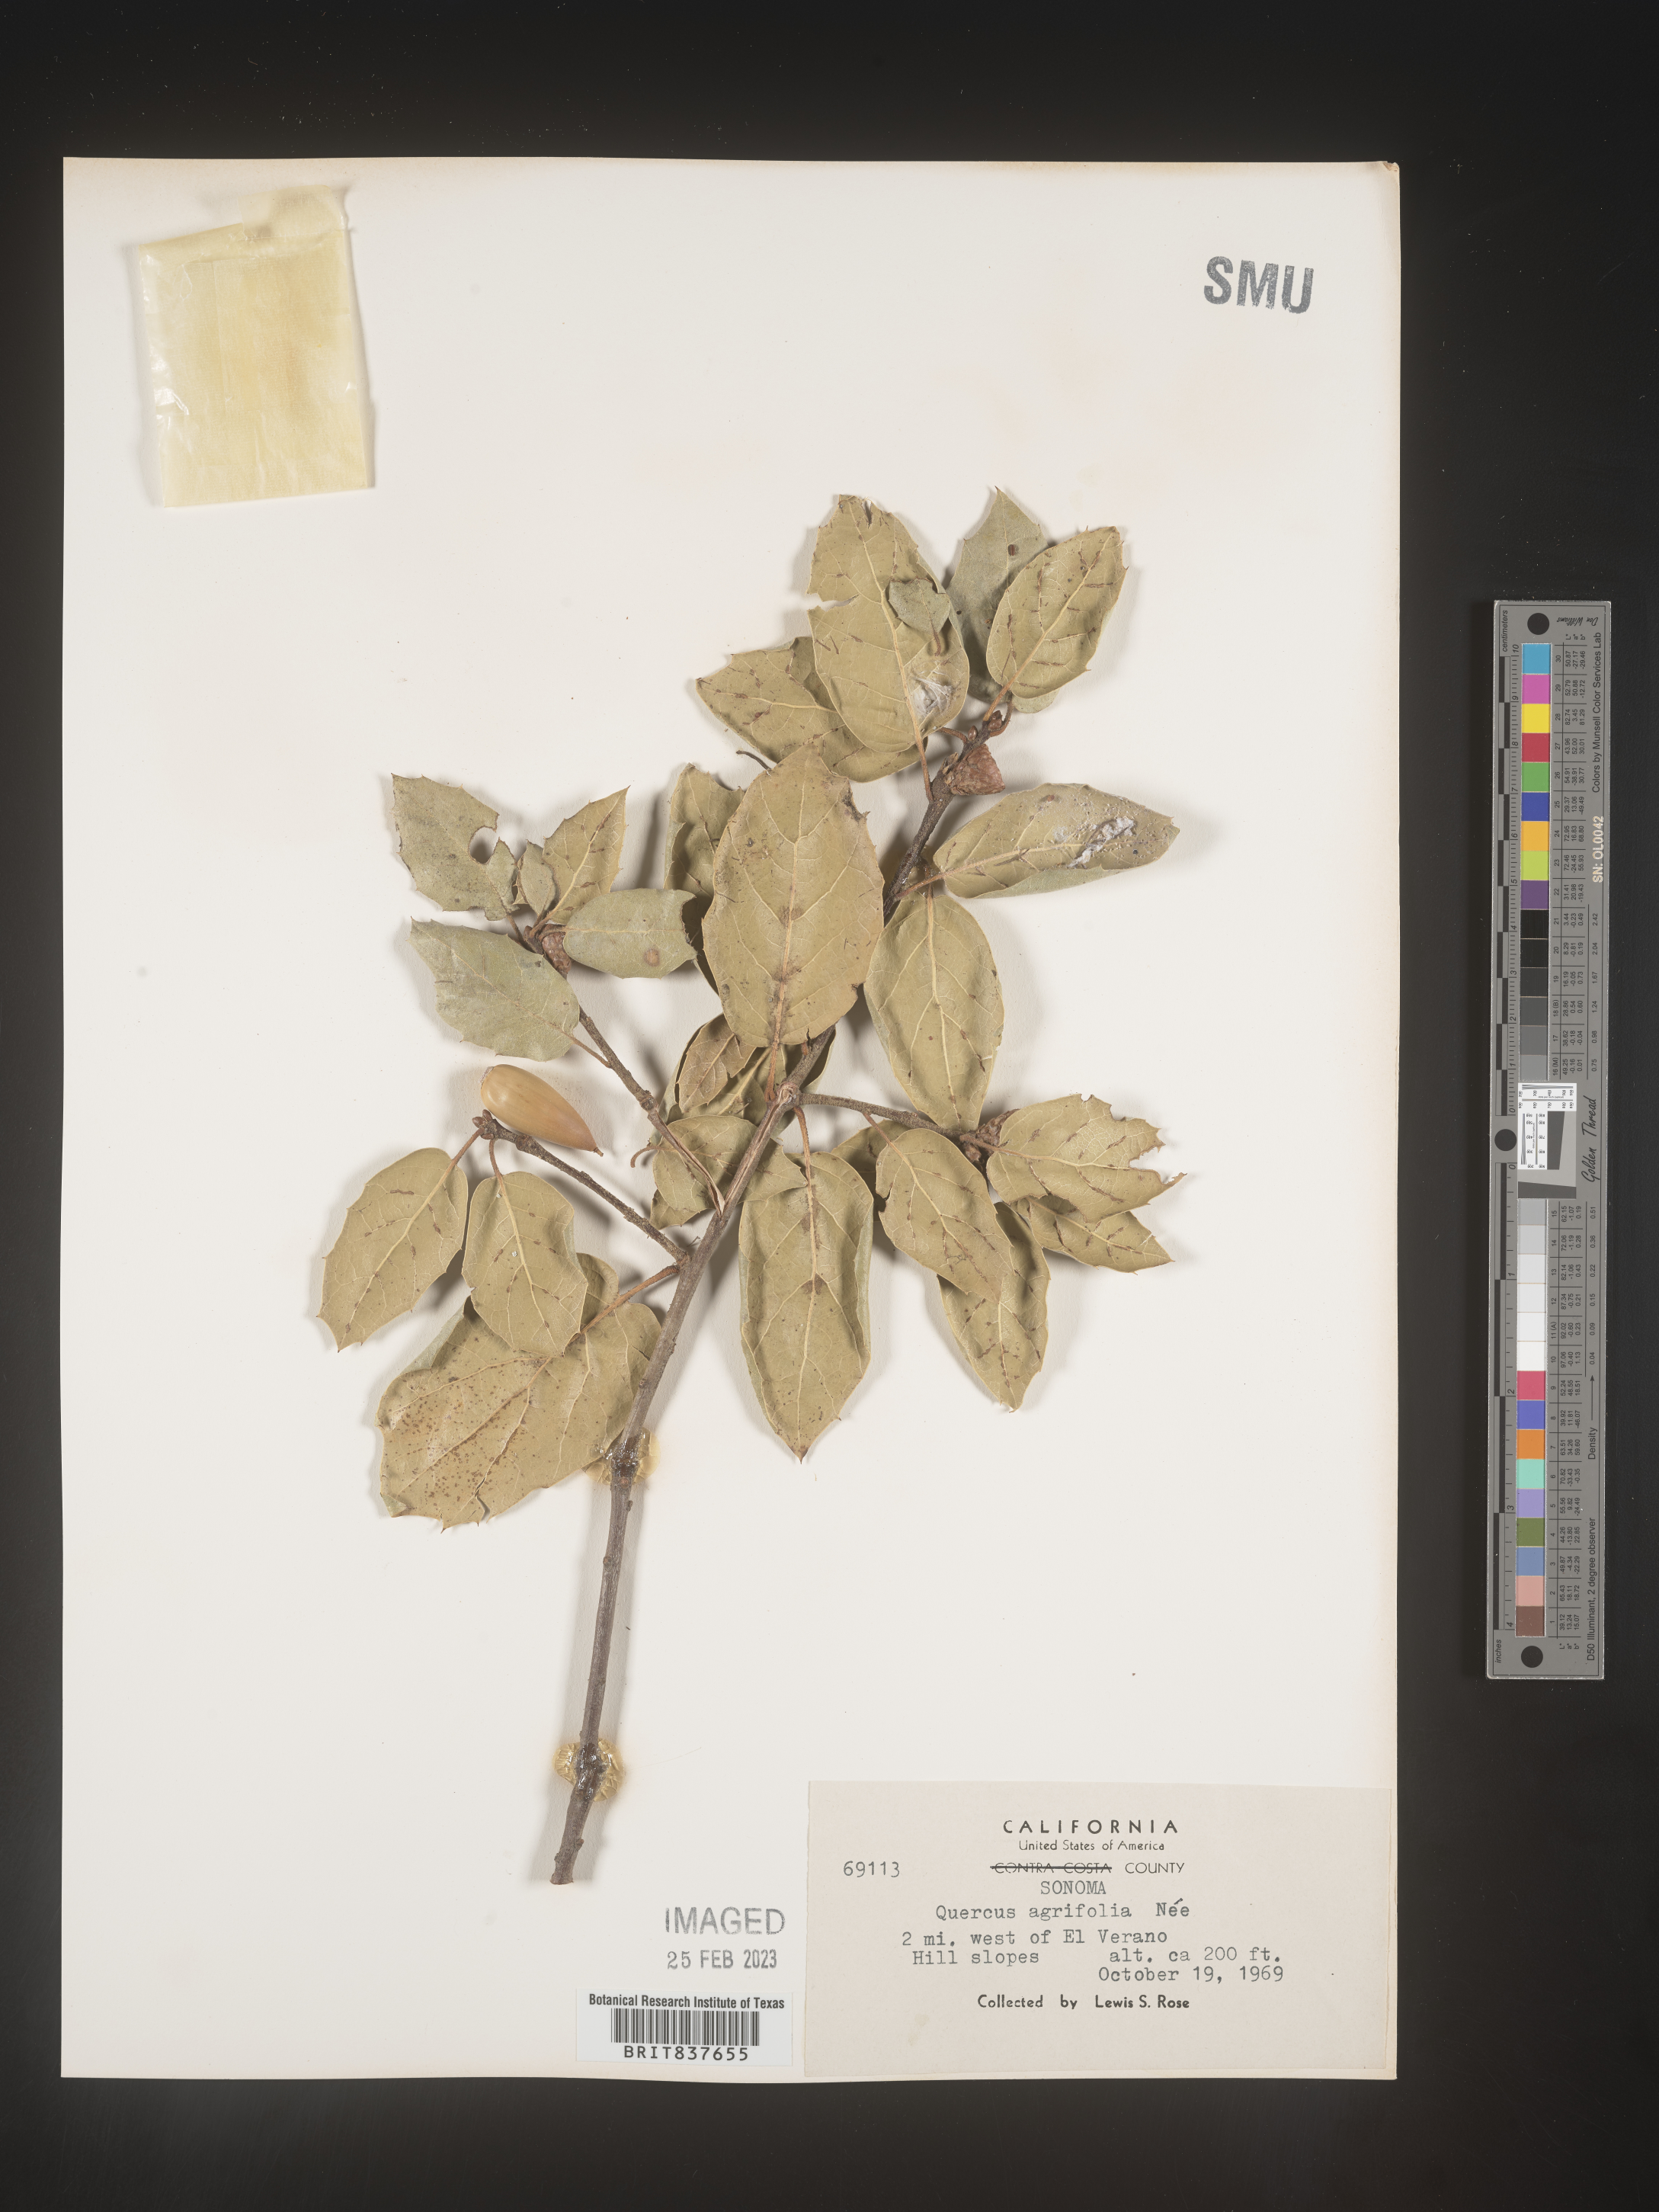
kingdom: Plantae
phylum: Tracheophyta
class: Magnoliopsida
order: Fagales
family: Fagaceae
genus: Quercus
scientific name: Quercus agrifolia
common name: California live oak
